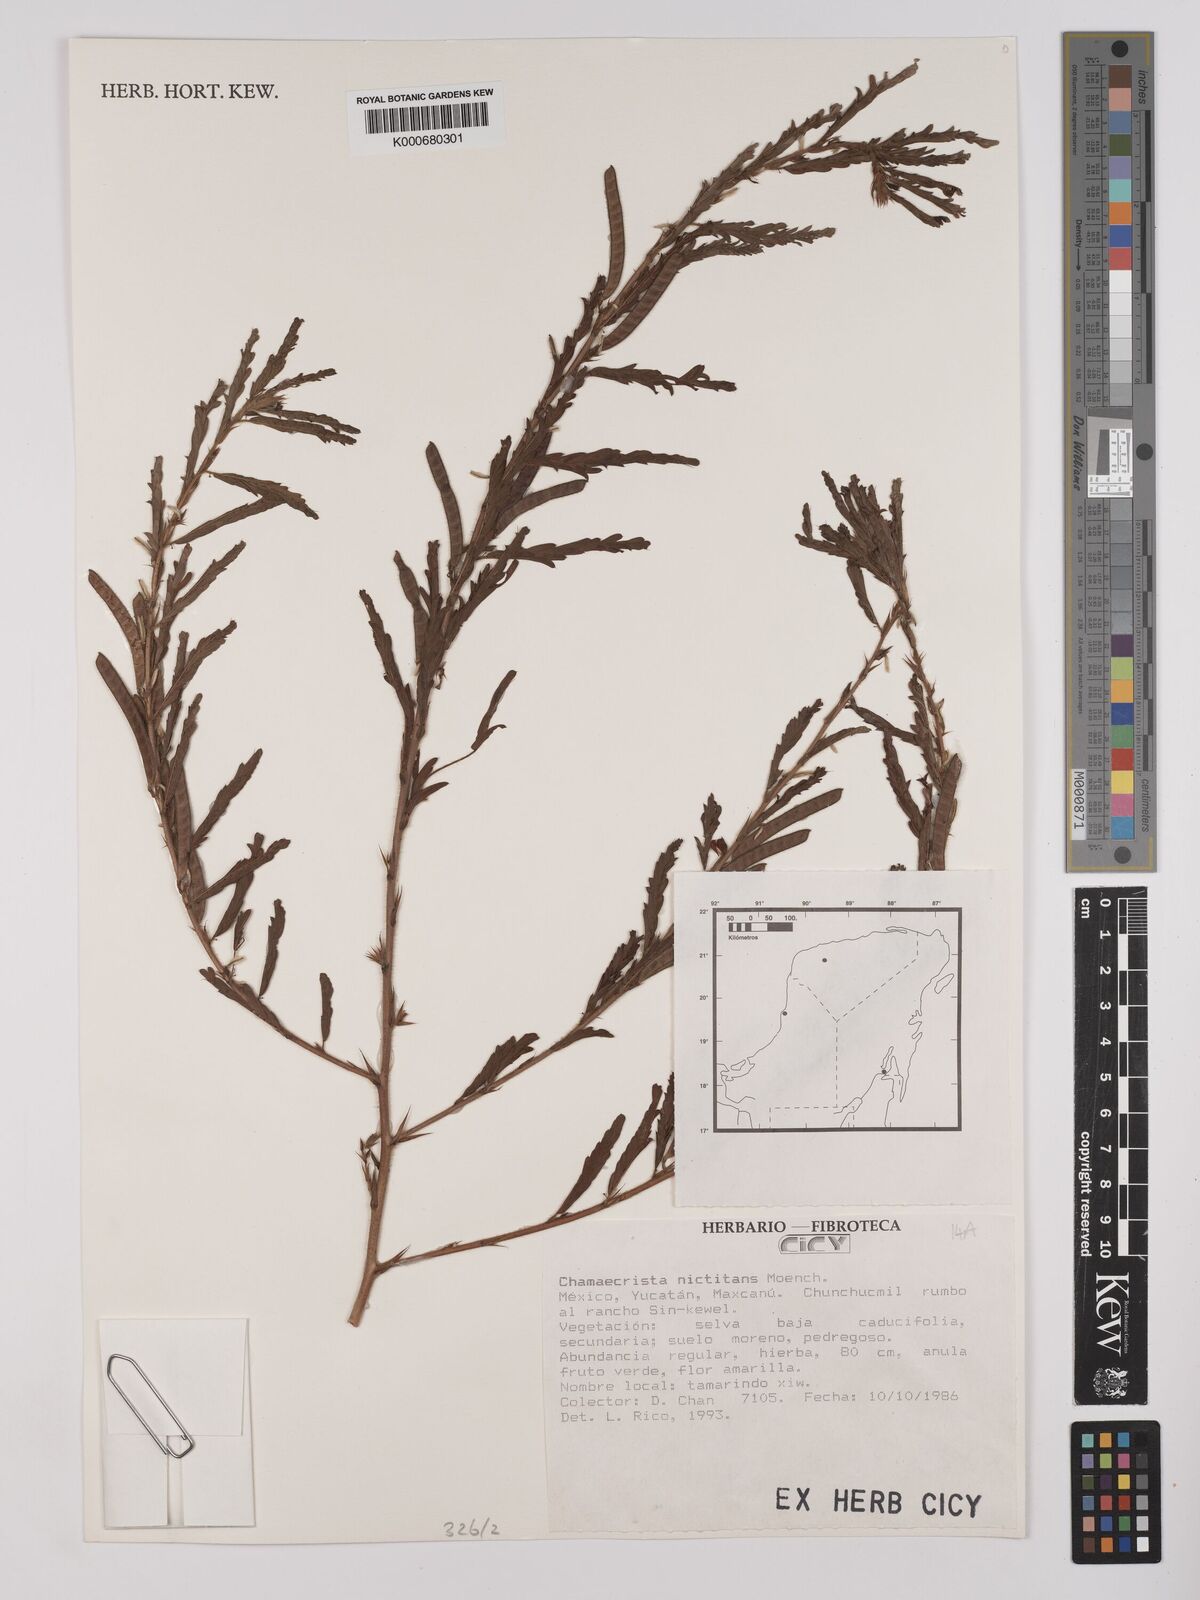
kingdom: Plantae
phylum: Tracheophyta
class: Magnoliopsida
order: Fabales
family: Fabaceae
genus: Chamaecrista
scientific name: Chamaecrista nictitans
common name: Sensitive cassia
